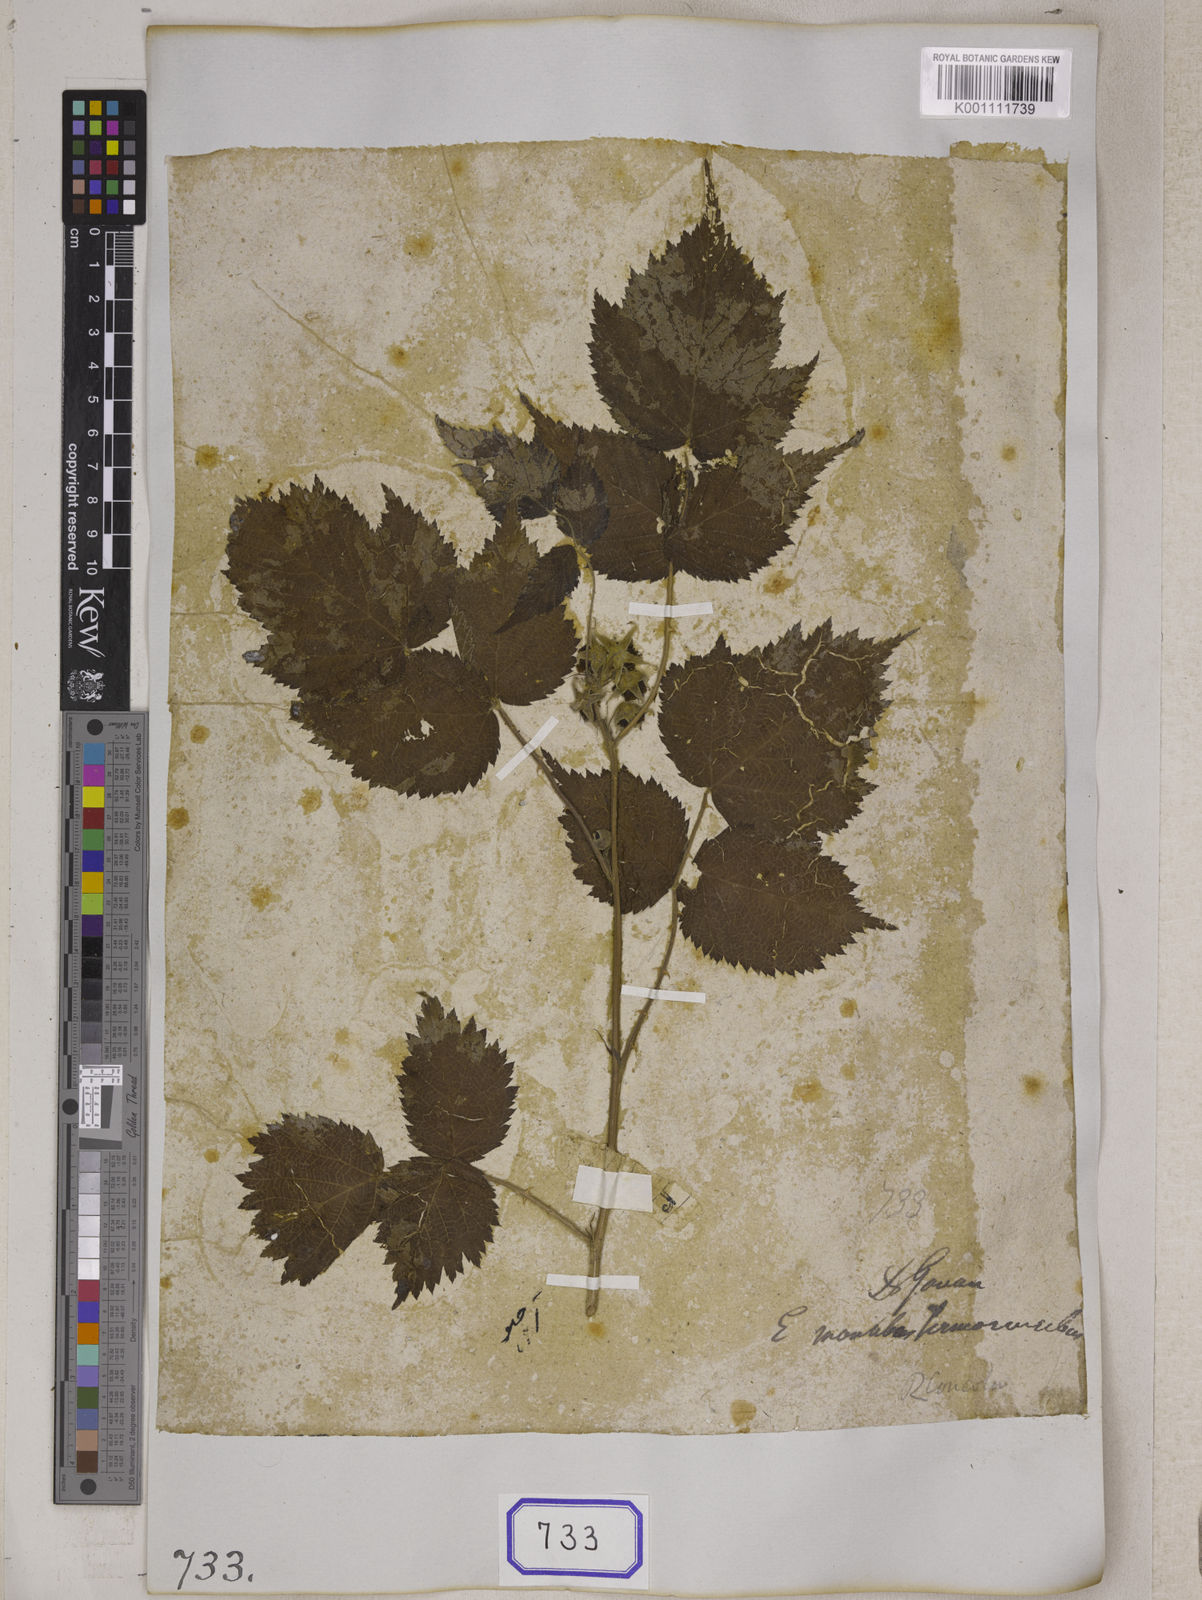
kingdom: Plantae
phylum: Tracheophyta
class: Magnoliopsida
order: Rosales
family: Rosaceae
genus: Rubus
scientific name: Rubus pedunculosus
